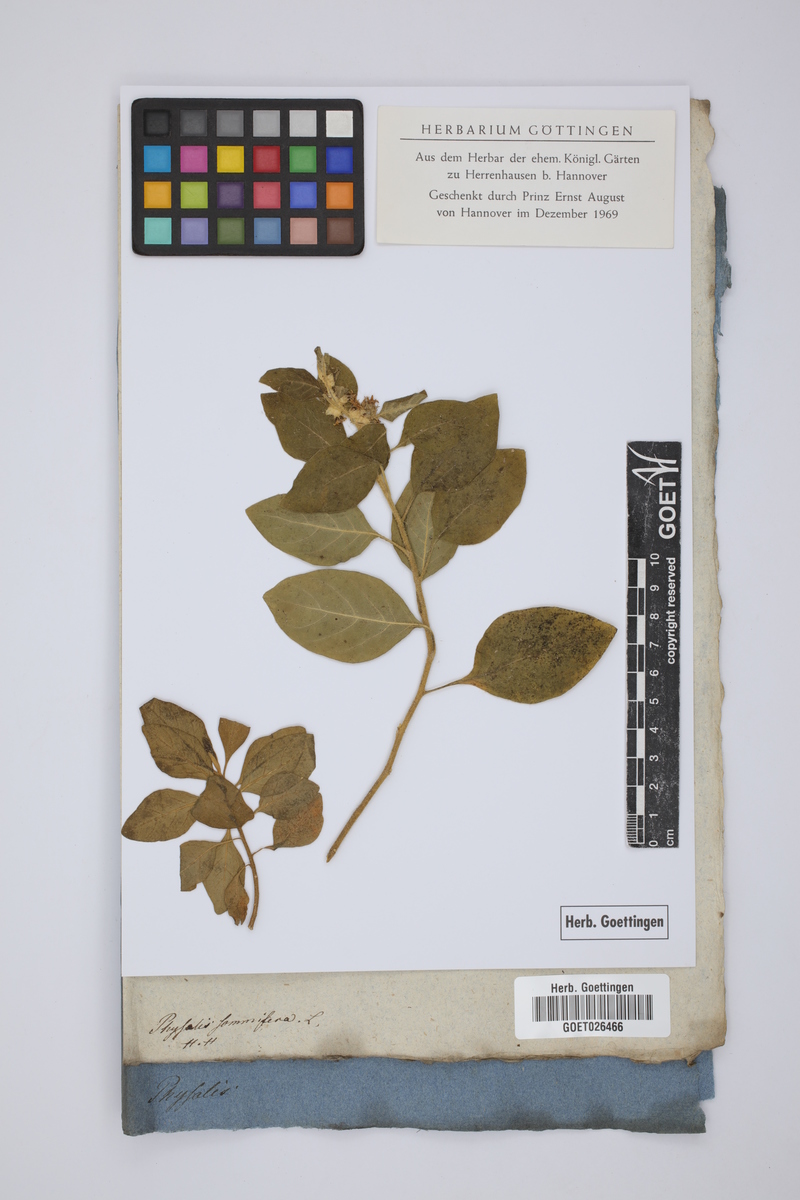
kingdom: Plantae
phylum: Tracheophyta
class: Magnoliopsida
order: Solanales
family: Solanaceae
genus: Withania
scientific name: Withania somnifera
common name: Winter-cherry
